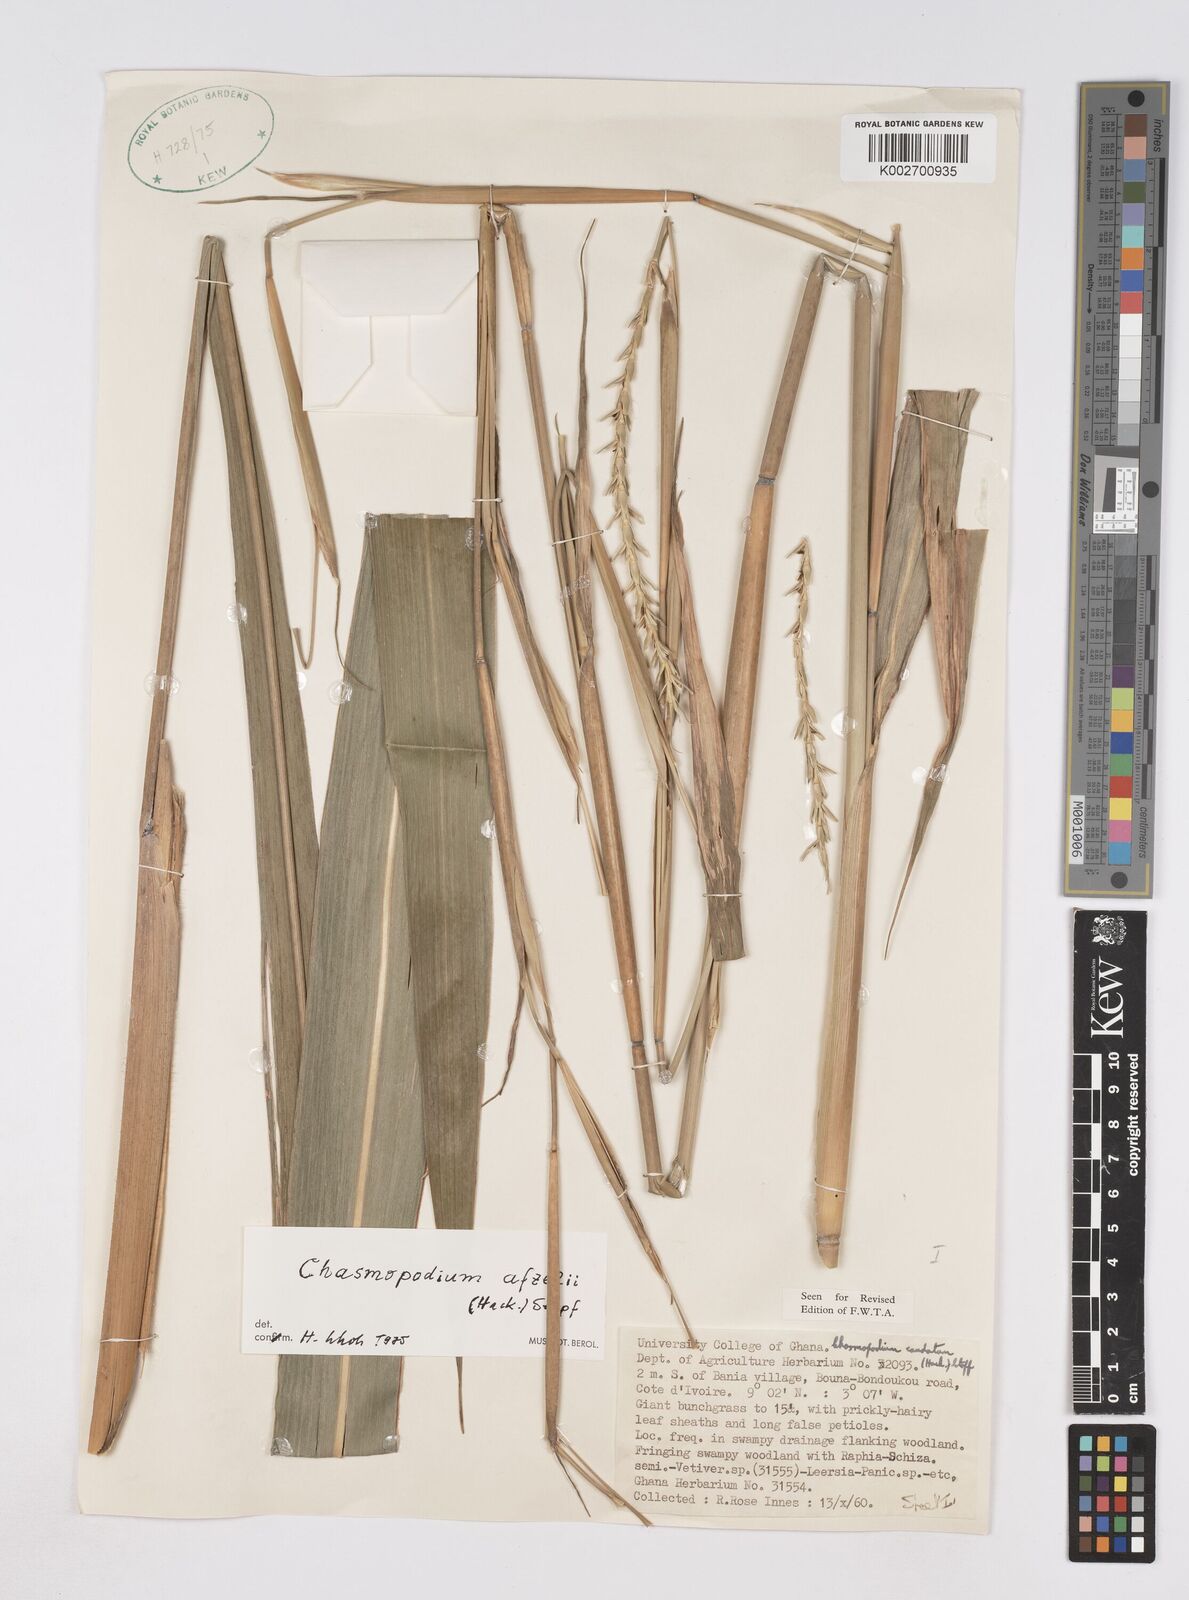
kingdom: Plantae
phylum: Tracheophyta
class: Liliopsida
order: Poales
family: Poaceae
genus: Chasmopodium
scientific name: Chasmopodium afzelii
